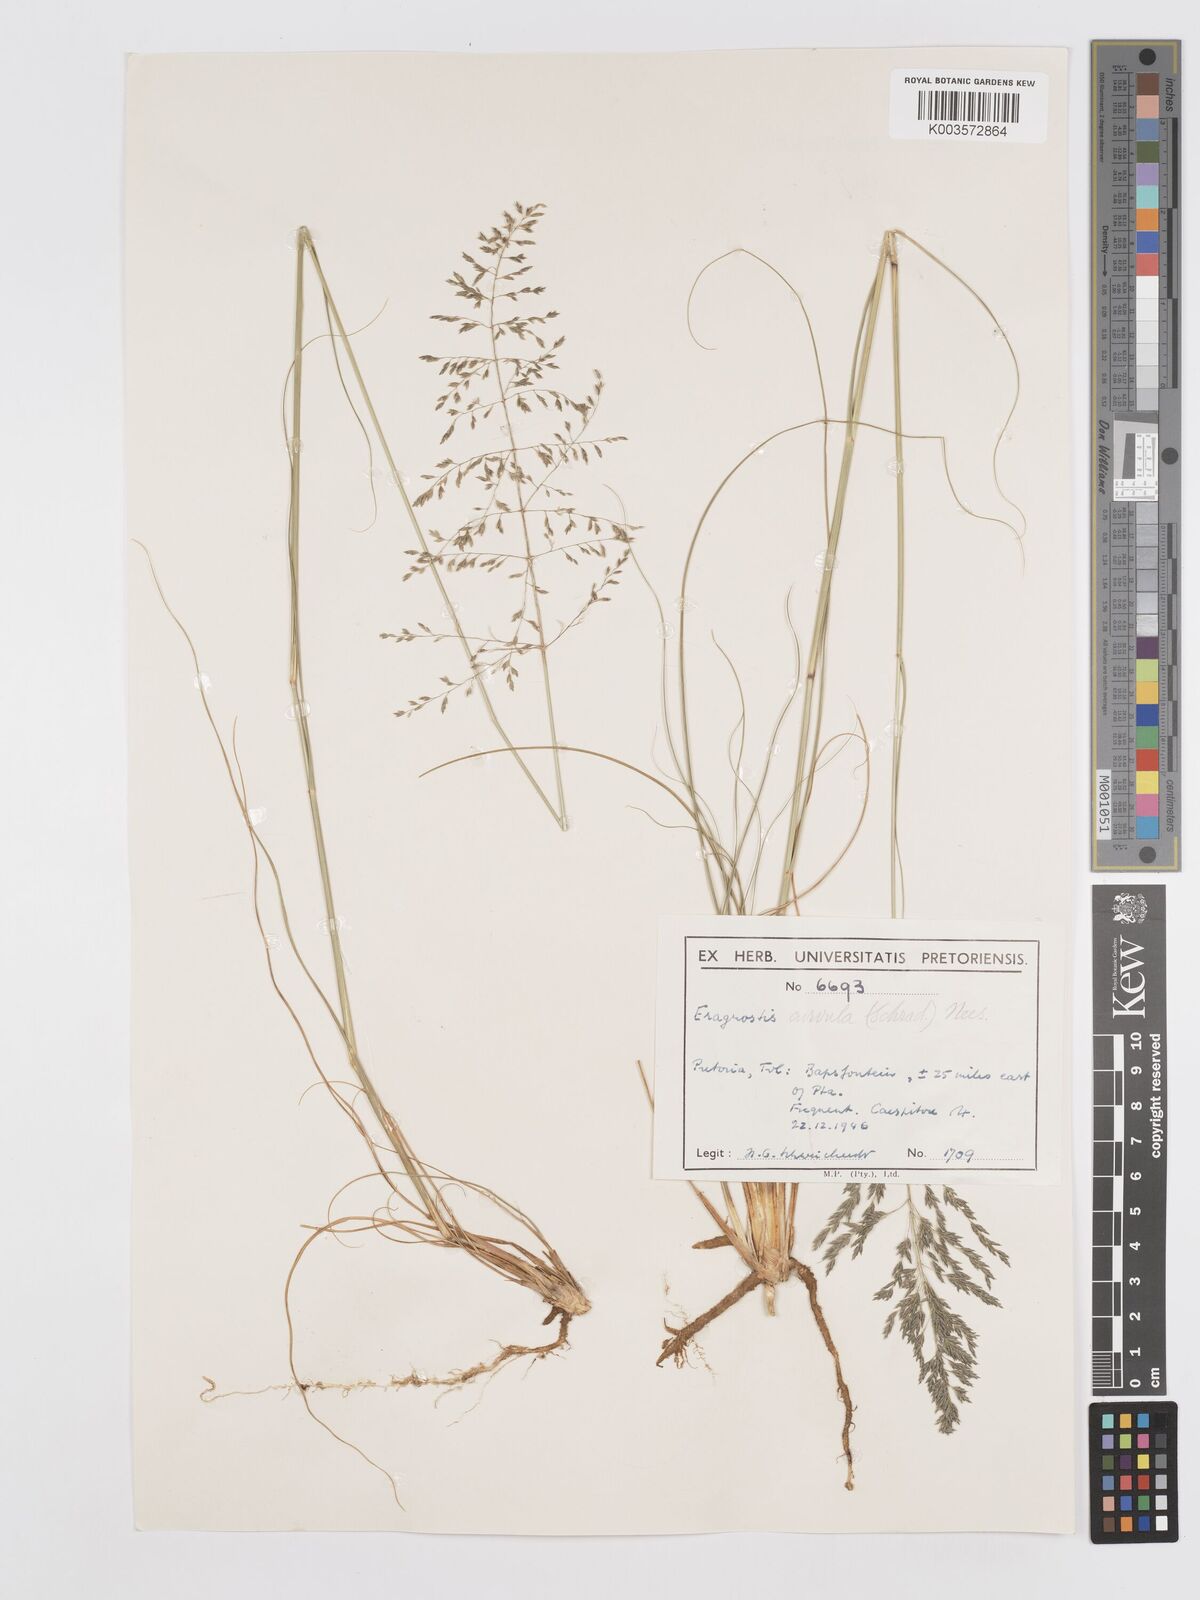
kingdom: Plantae
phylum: Tracheophyta
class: Liliopsida
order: Poales
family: Poaceae
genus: Eragrostis
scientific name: Eragrostis curvula
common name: African love-grass
